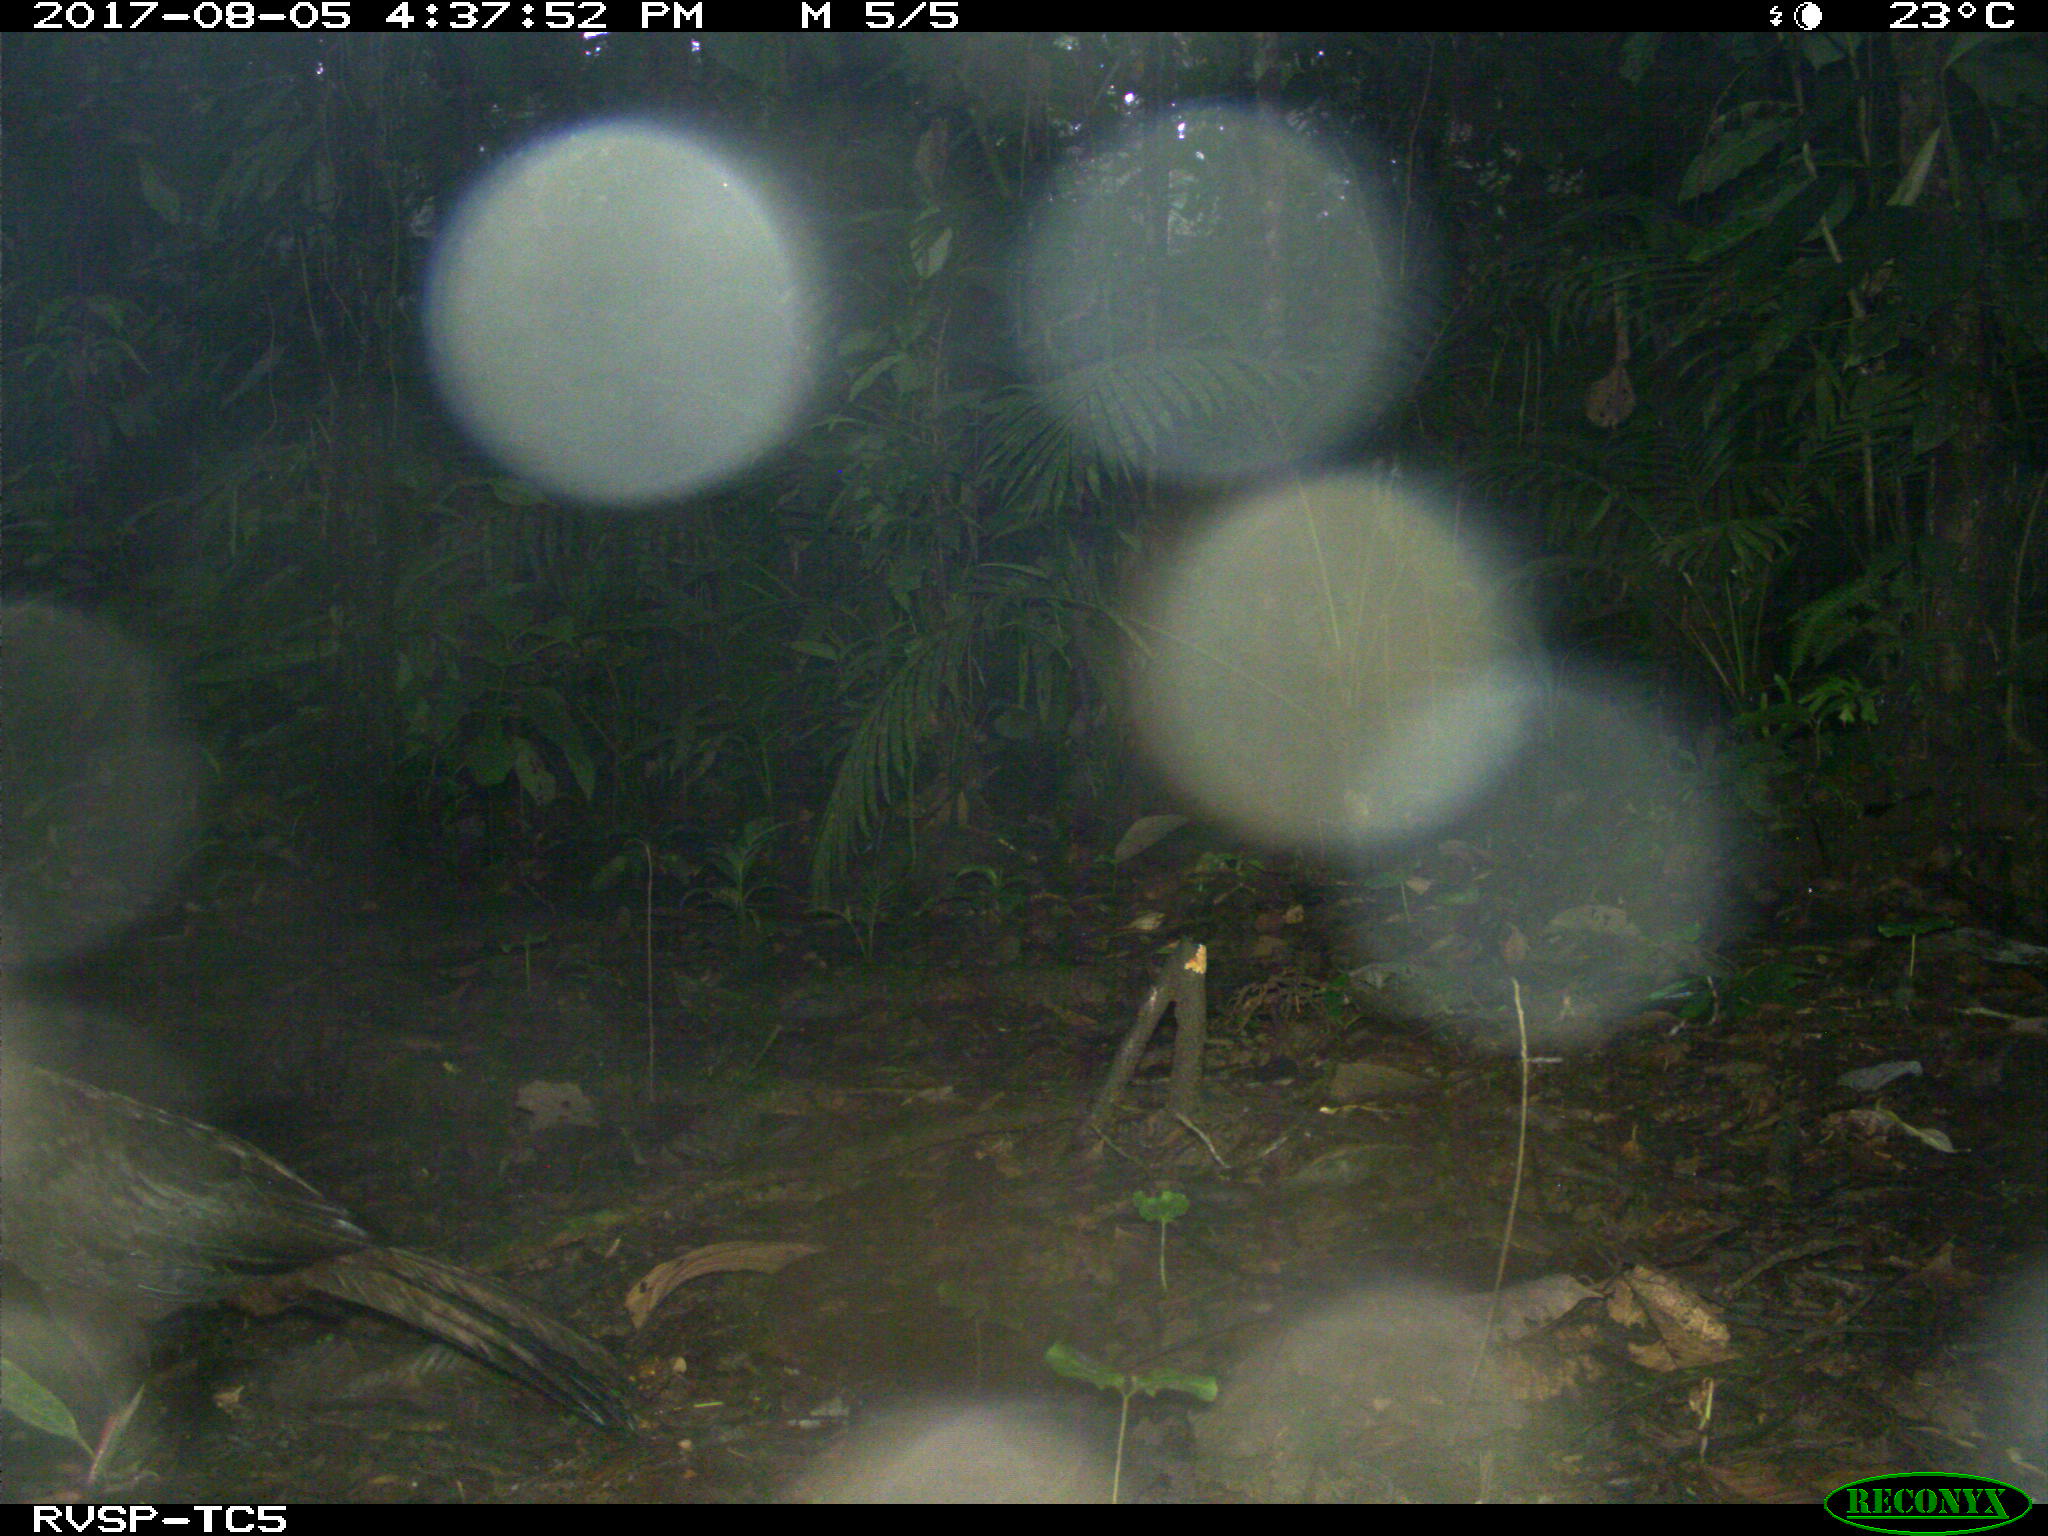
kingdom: Animalia
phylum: Chordata
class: Aves
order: Galliformes
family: Cracidae
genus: Penelope
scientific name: Penelope purpurascens
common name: Crested guan
